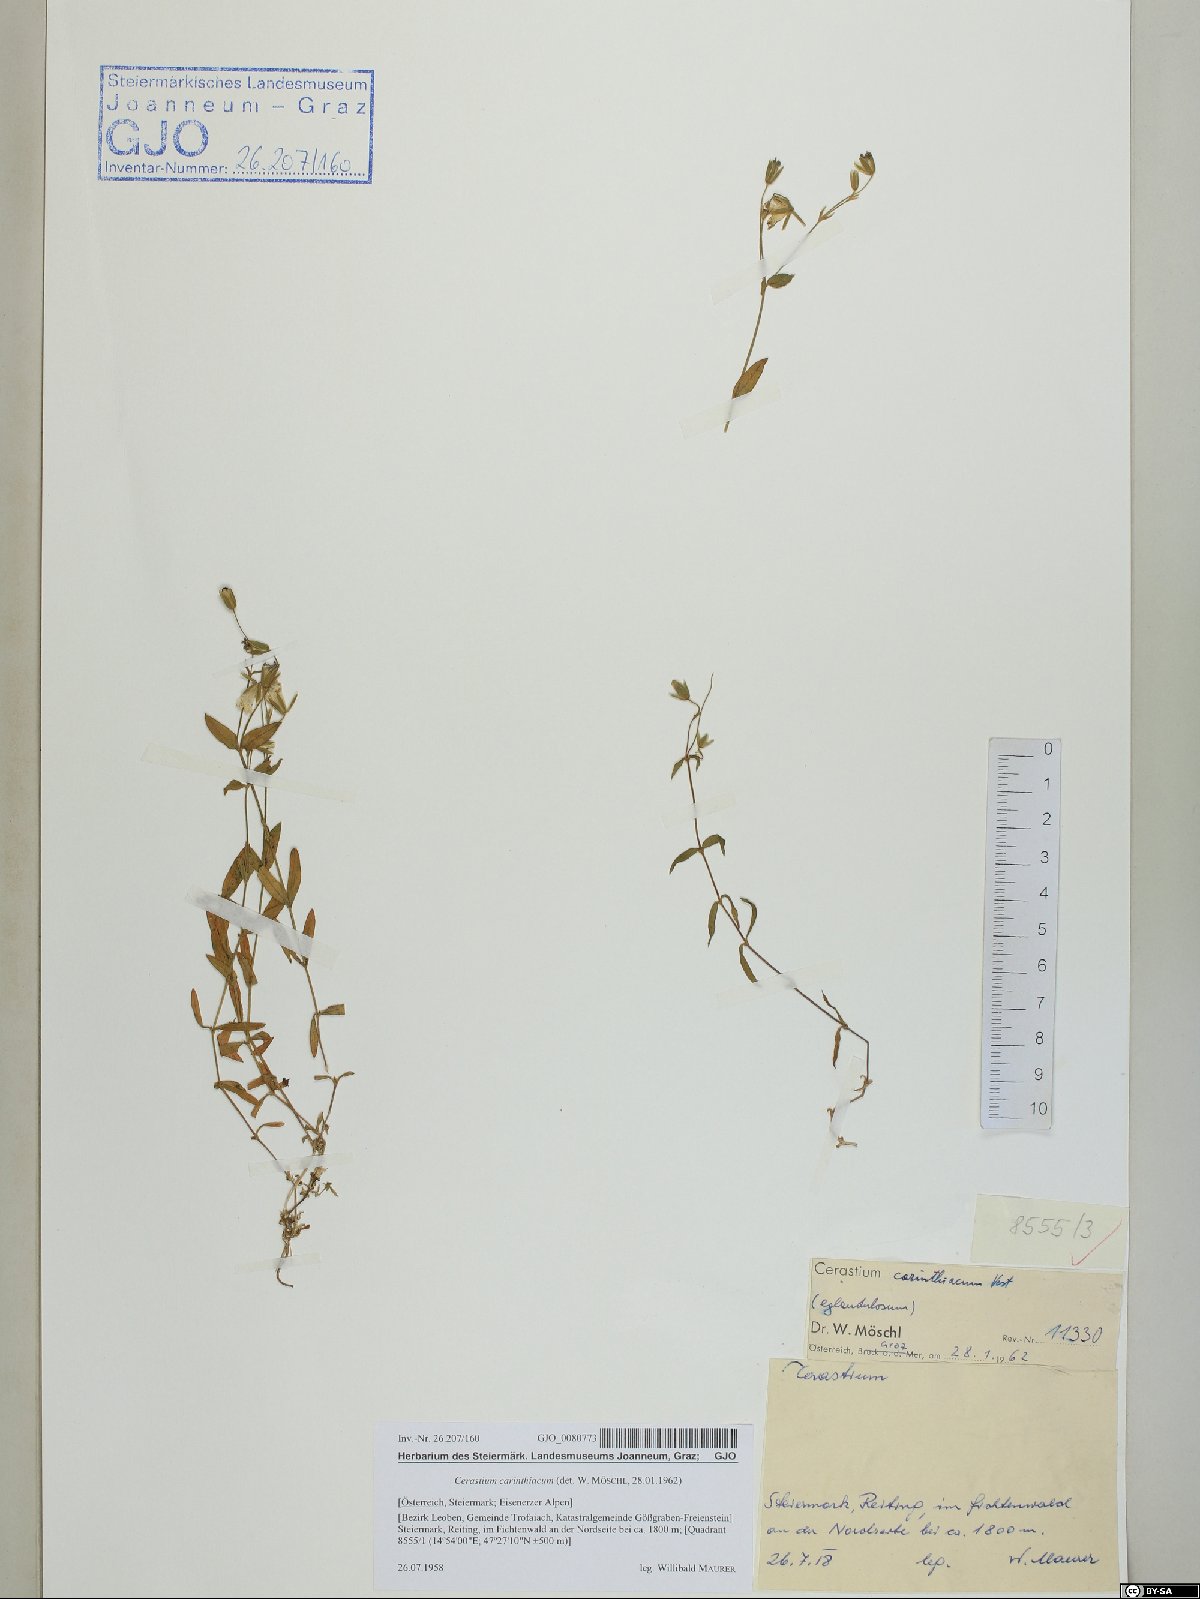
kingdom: Plantae
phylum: Tracheophyta
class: Magnoliopsida
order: Caryophyllales
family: Caryophyllaceae
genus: Cerastium
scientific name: Cerastium carinthiacum
